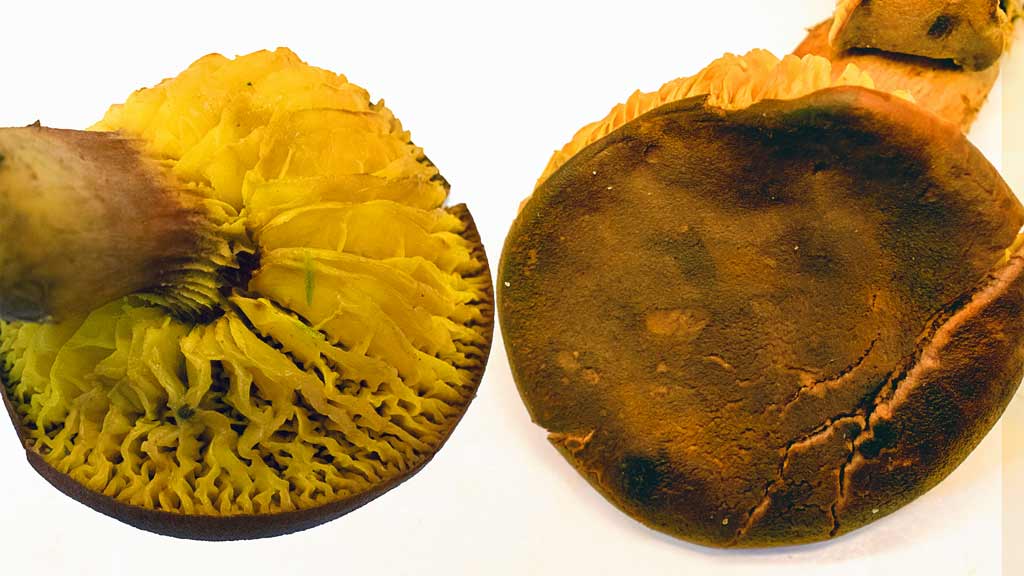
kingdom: Fungi
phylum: Basidiomycota
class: Agaricomycetes
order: Boletales
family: Boletaceae
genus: Phylloporus
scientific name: Phylloporus pelletieri
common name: lamelrørhat
